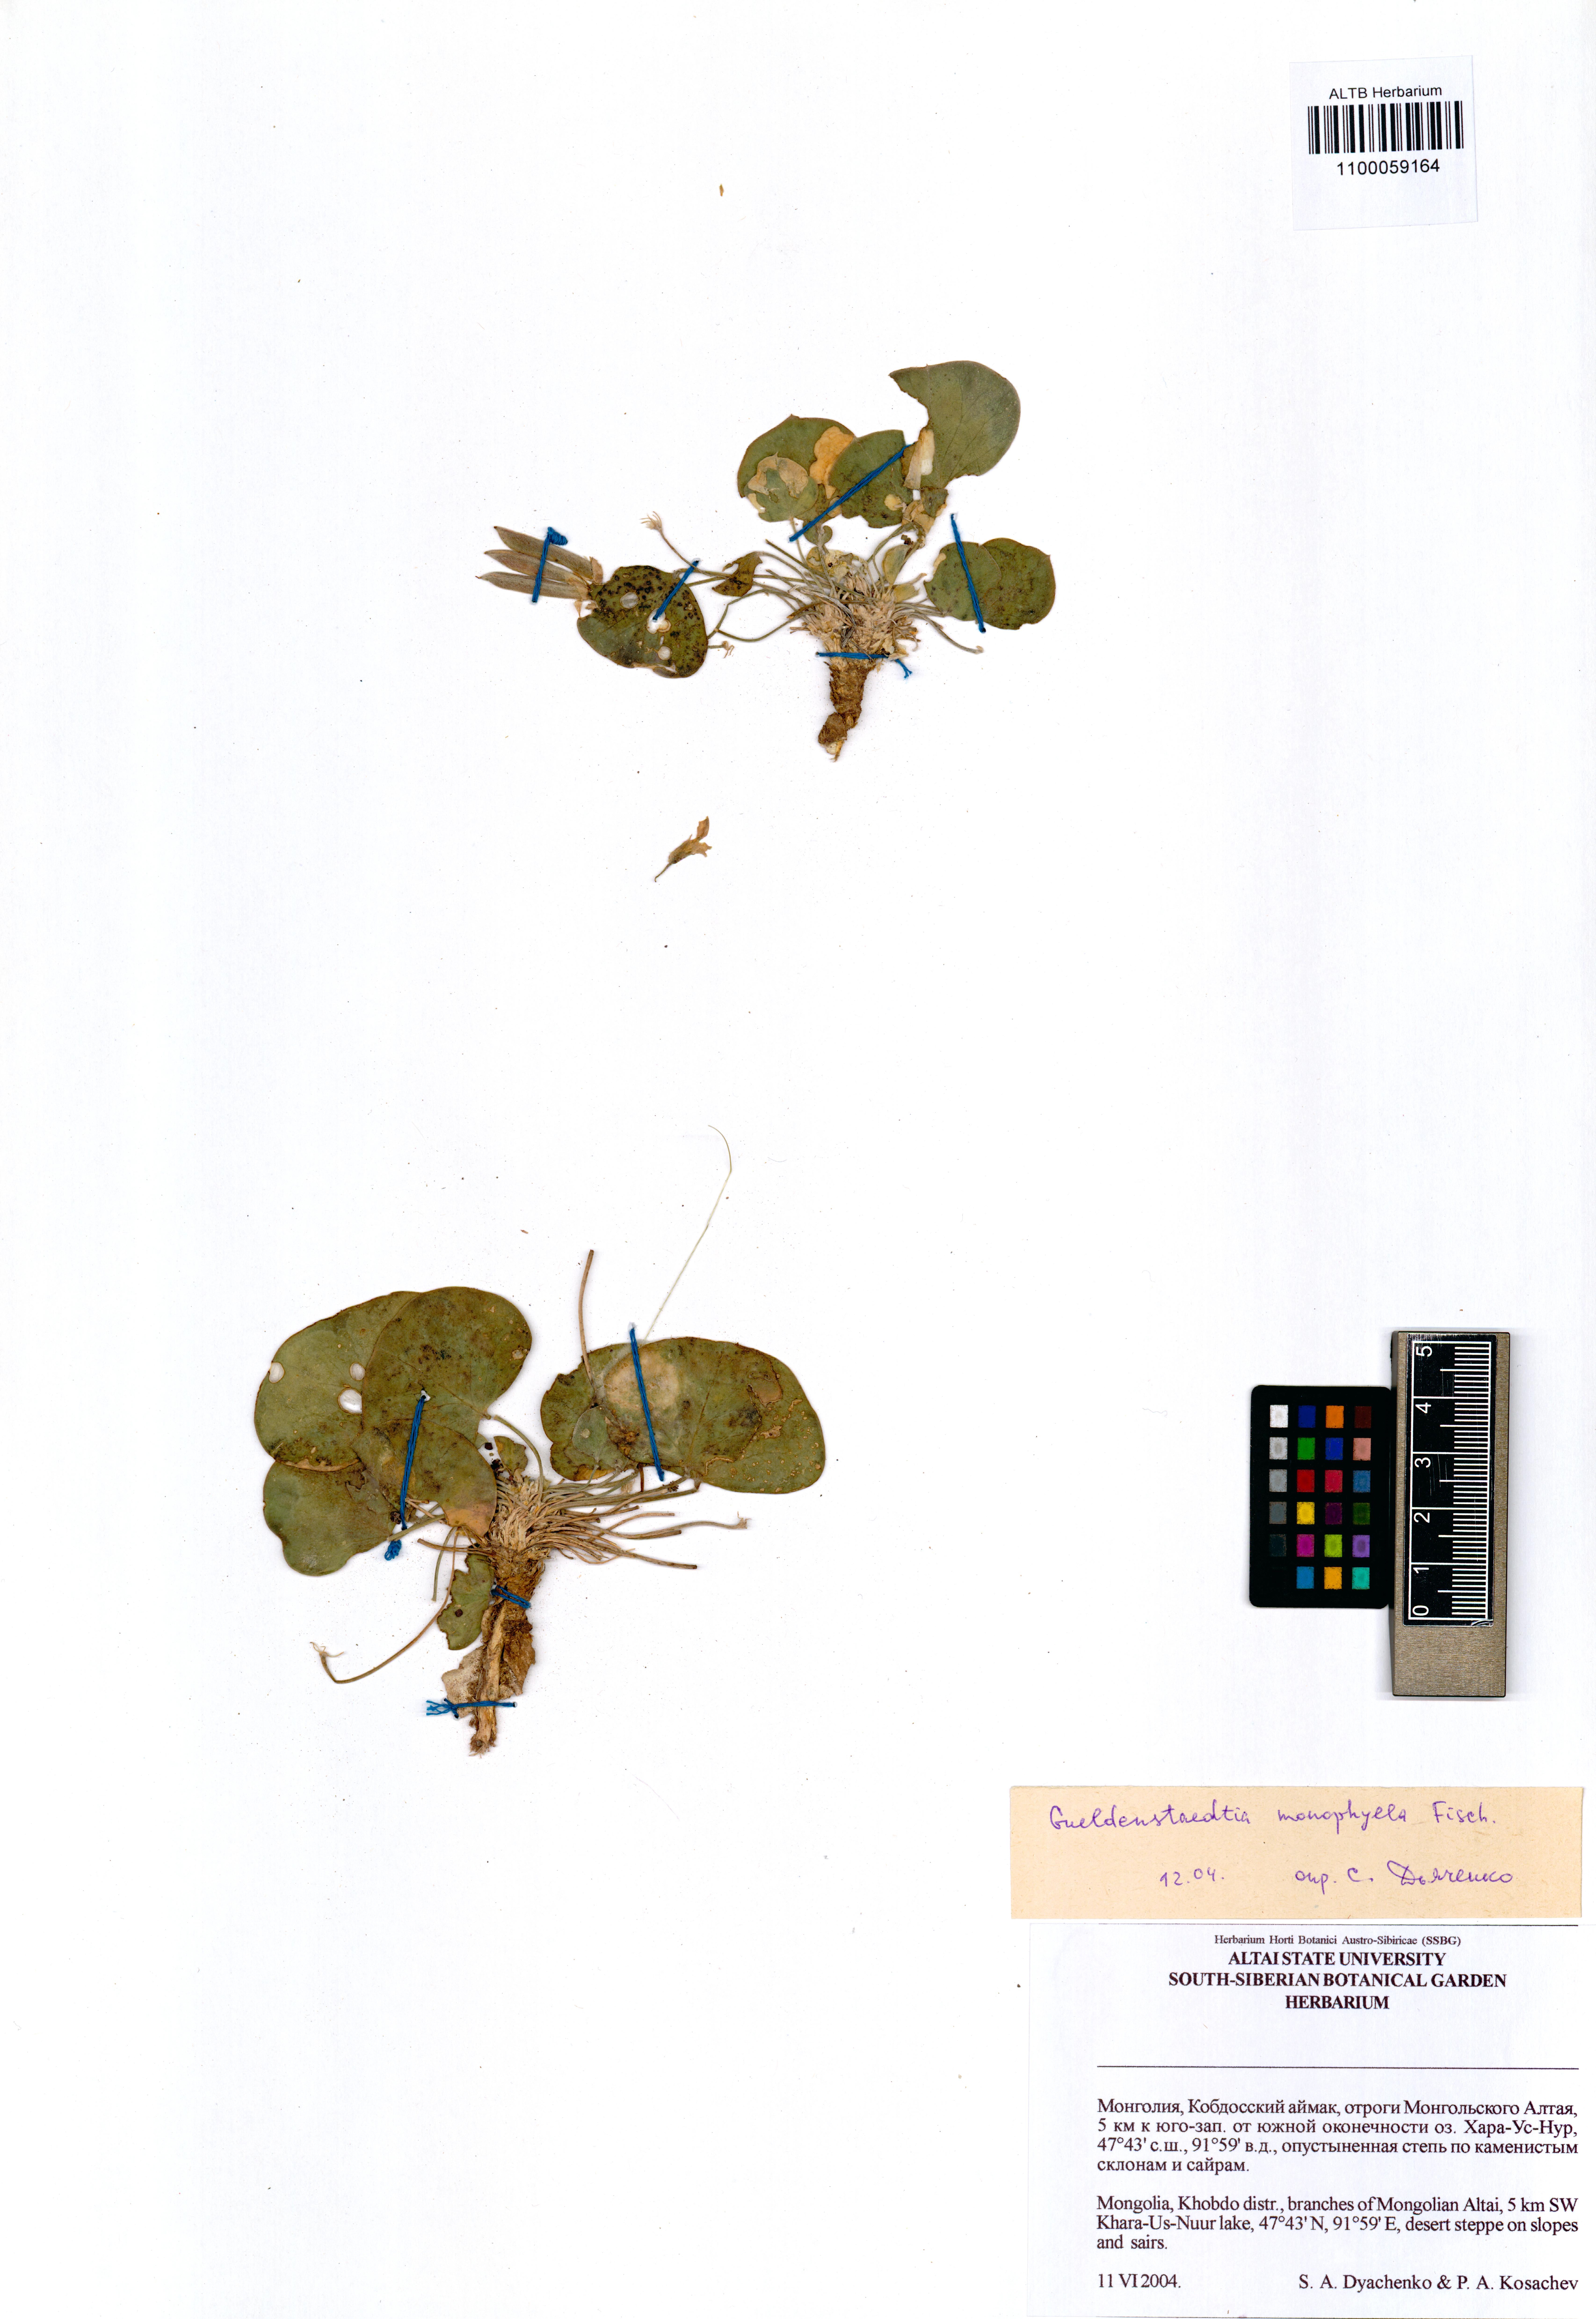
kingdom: Plantae
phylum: Tracheophyta
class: Magnoliopsida
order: Fabales
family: Fabaceae
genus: Gueldenstaedtia
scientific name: Gueldenstaedtia monophylla
